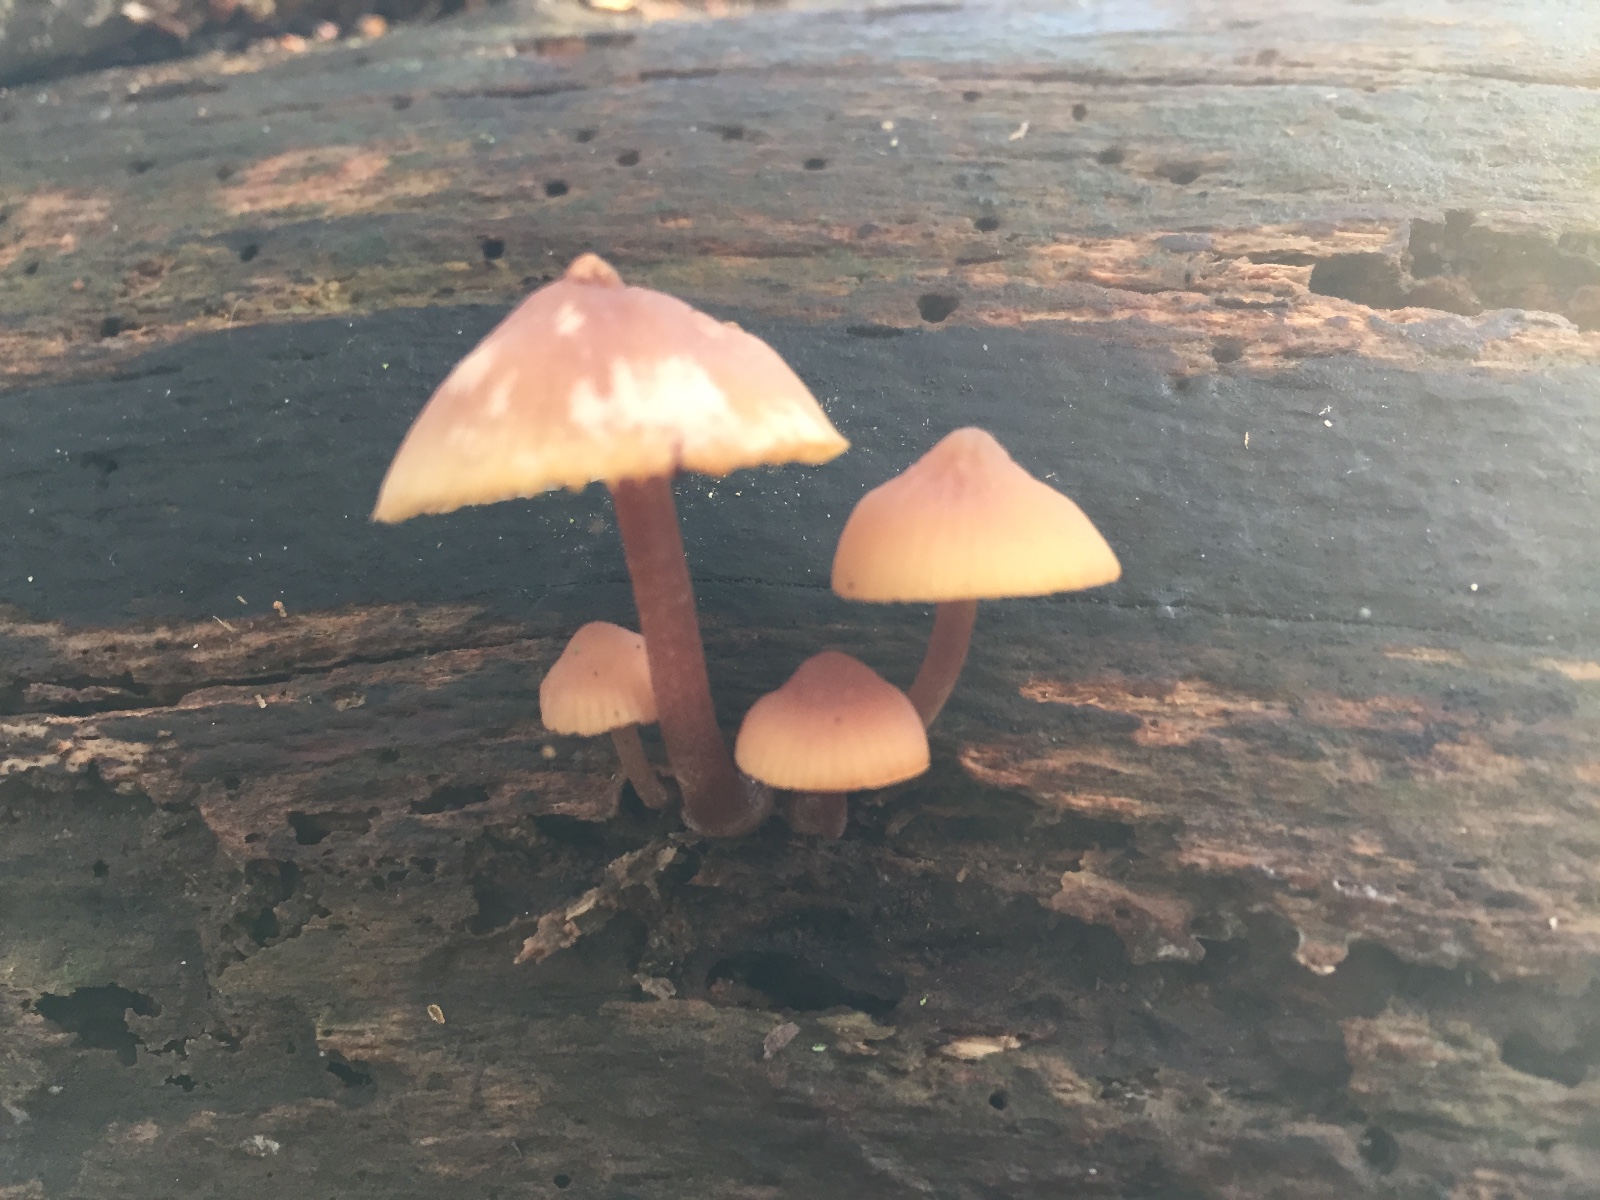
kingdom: Fungi
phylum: Basidiomycota
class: Agaricomycetes
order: Agaricales
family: Mycenaceae
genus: Mycena
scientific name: Mycena haematopus
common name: blødende huesvamp
